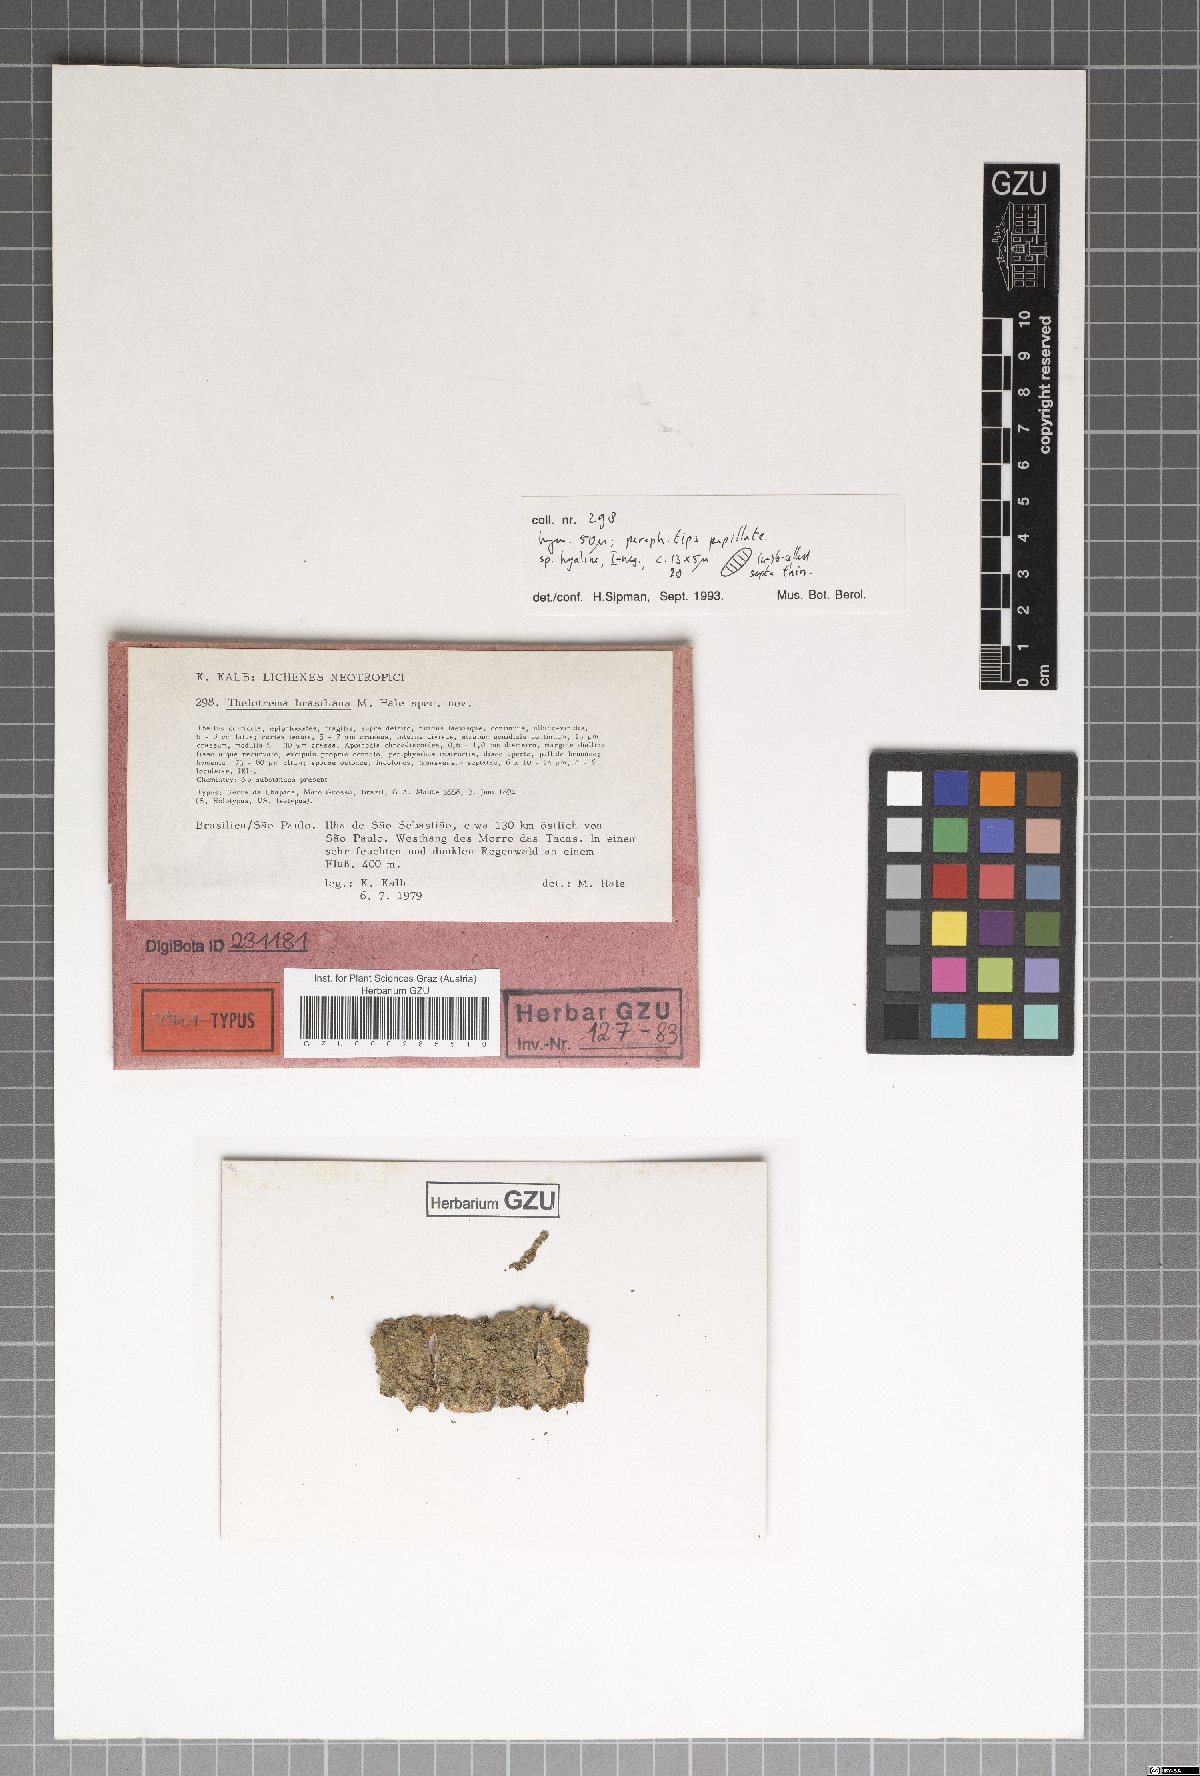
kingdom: Fungi
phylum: Ascomycota
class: Lecanoromycetes
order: Ostropales
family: Graphidaceae
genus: Acanthotrema
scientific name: Acanthotrema brasilianum
